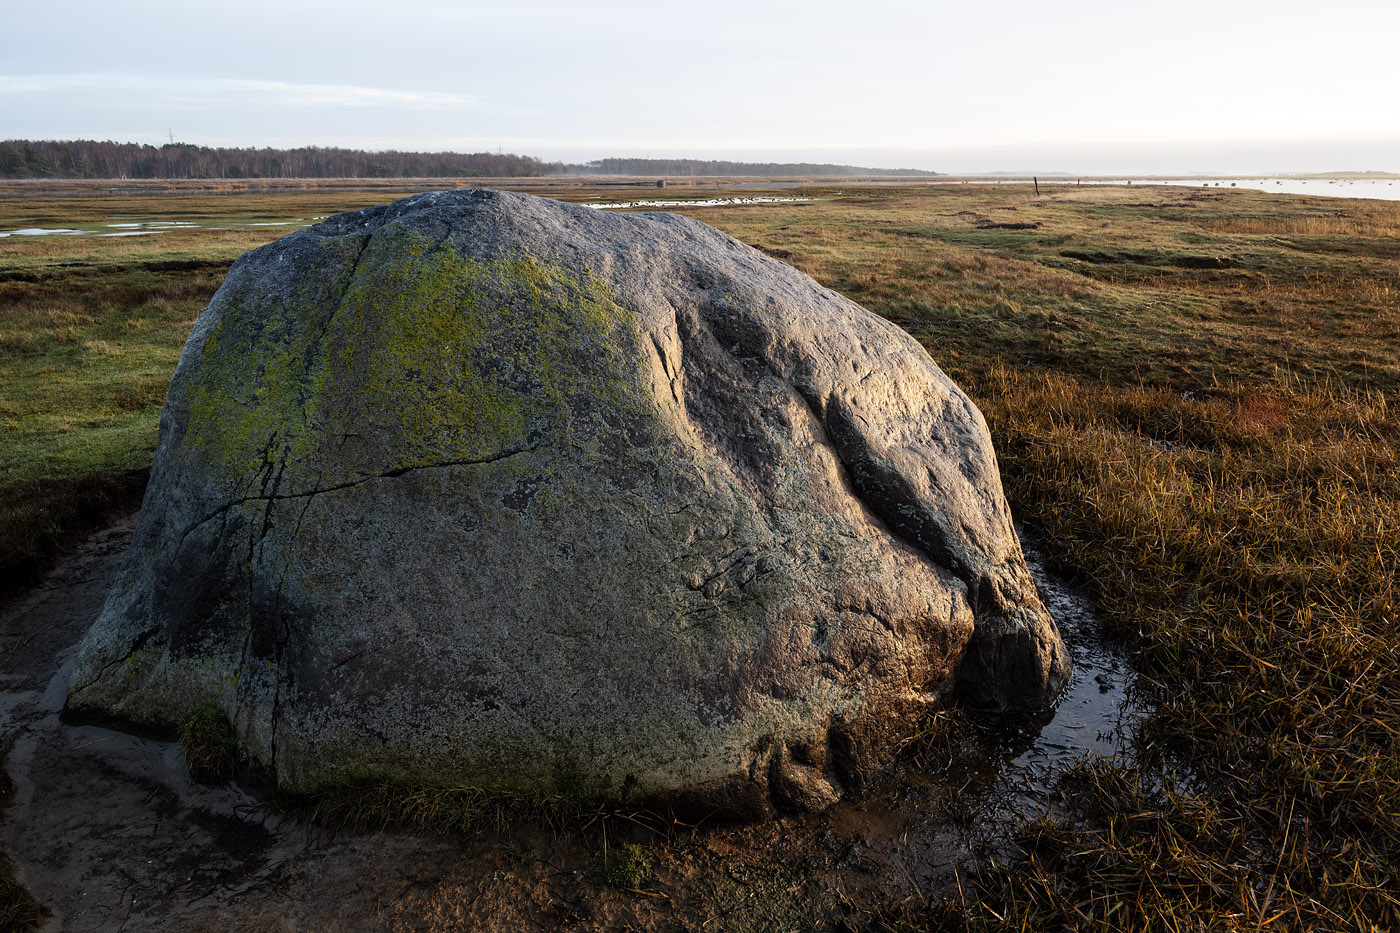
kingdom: Fungi
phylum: Ascomycota
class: Lecanoromycetes
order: Teloschistales
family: Teloschistaceae
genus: Athallia
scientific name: Athallia scopularis
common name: klippe-orangelav
